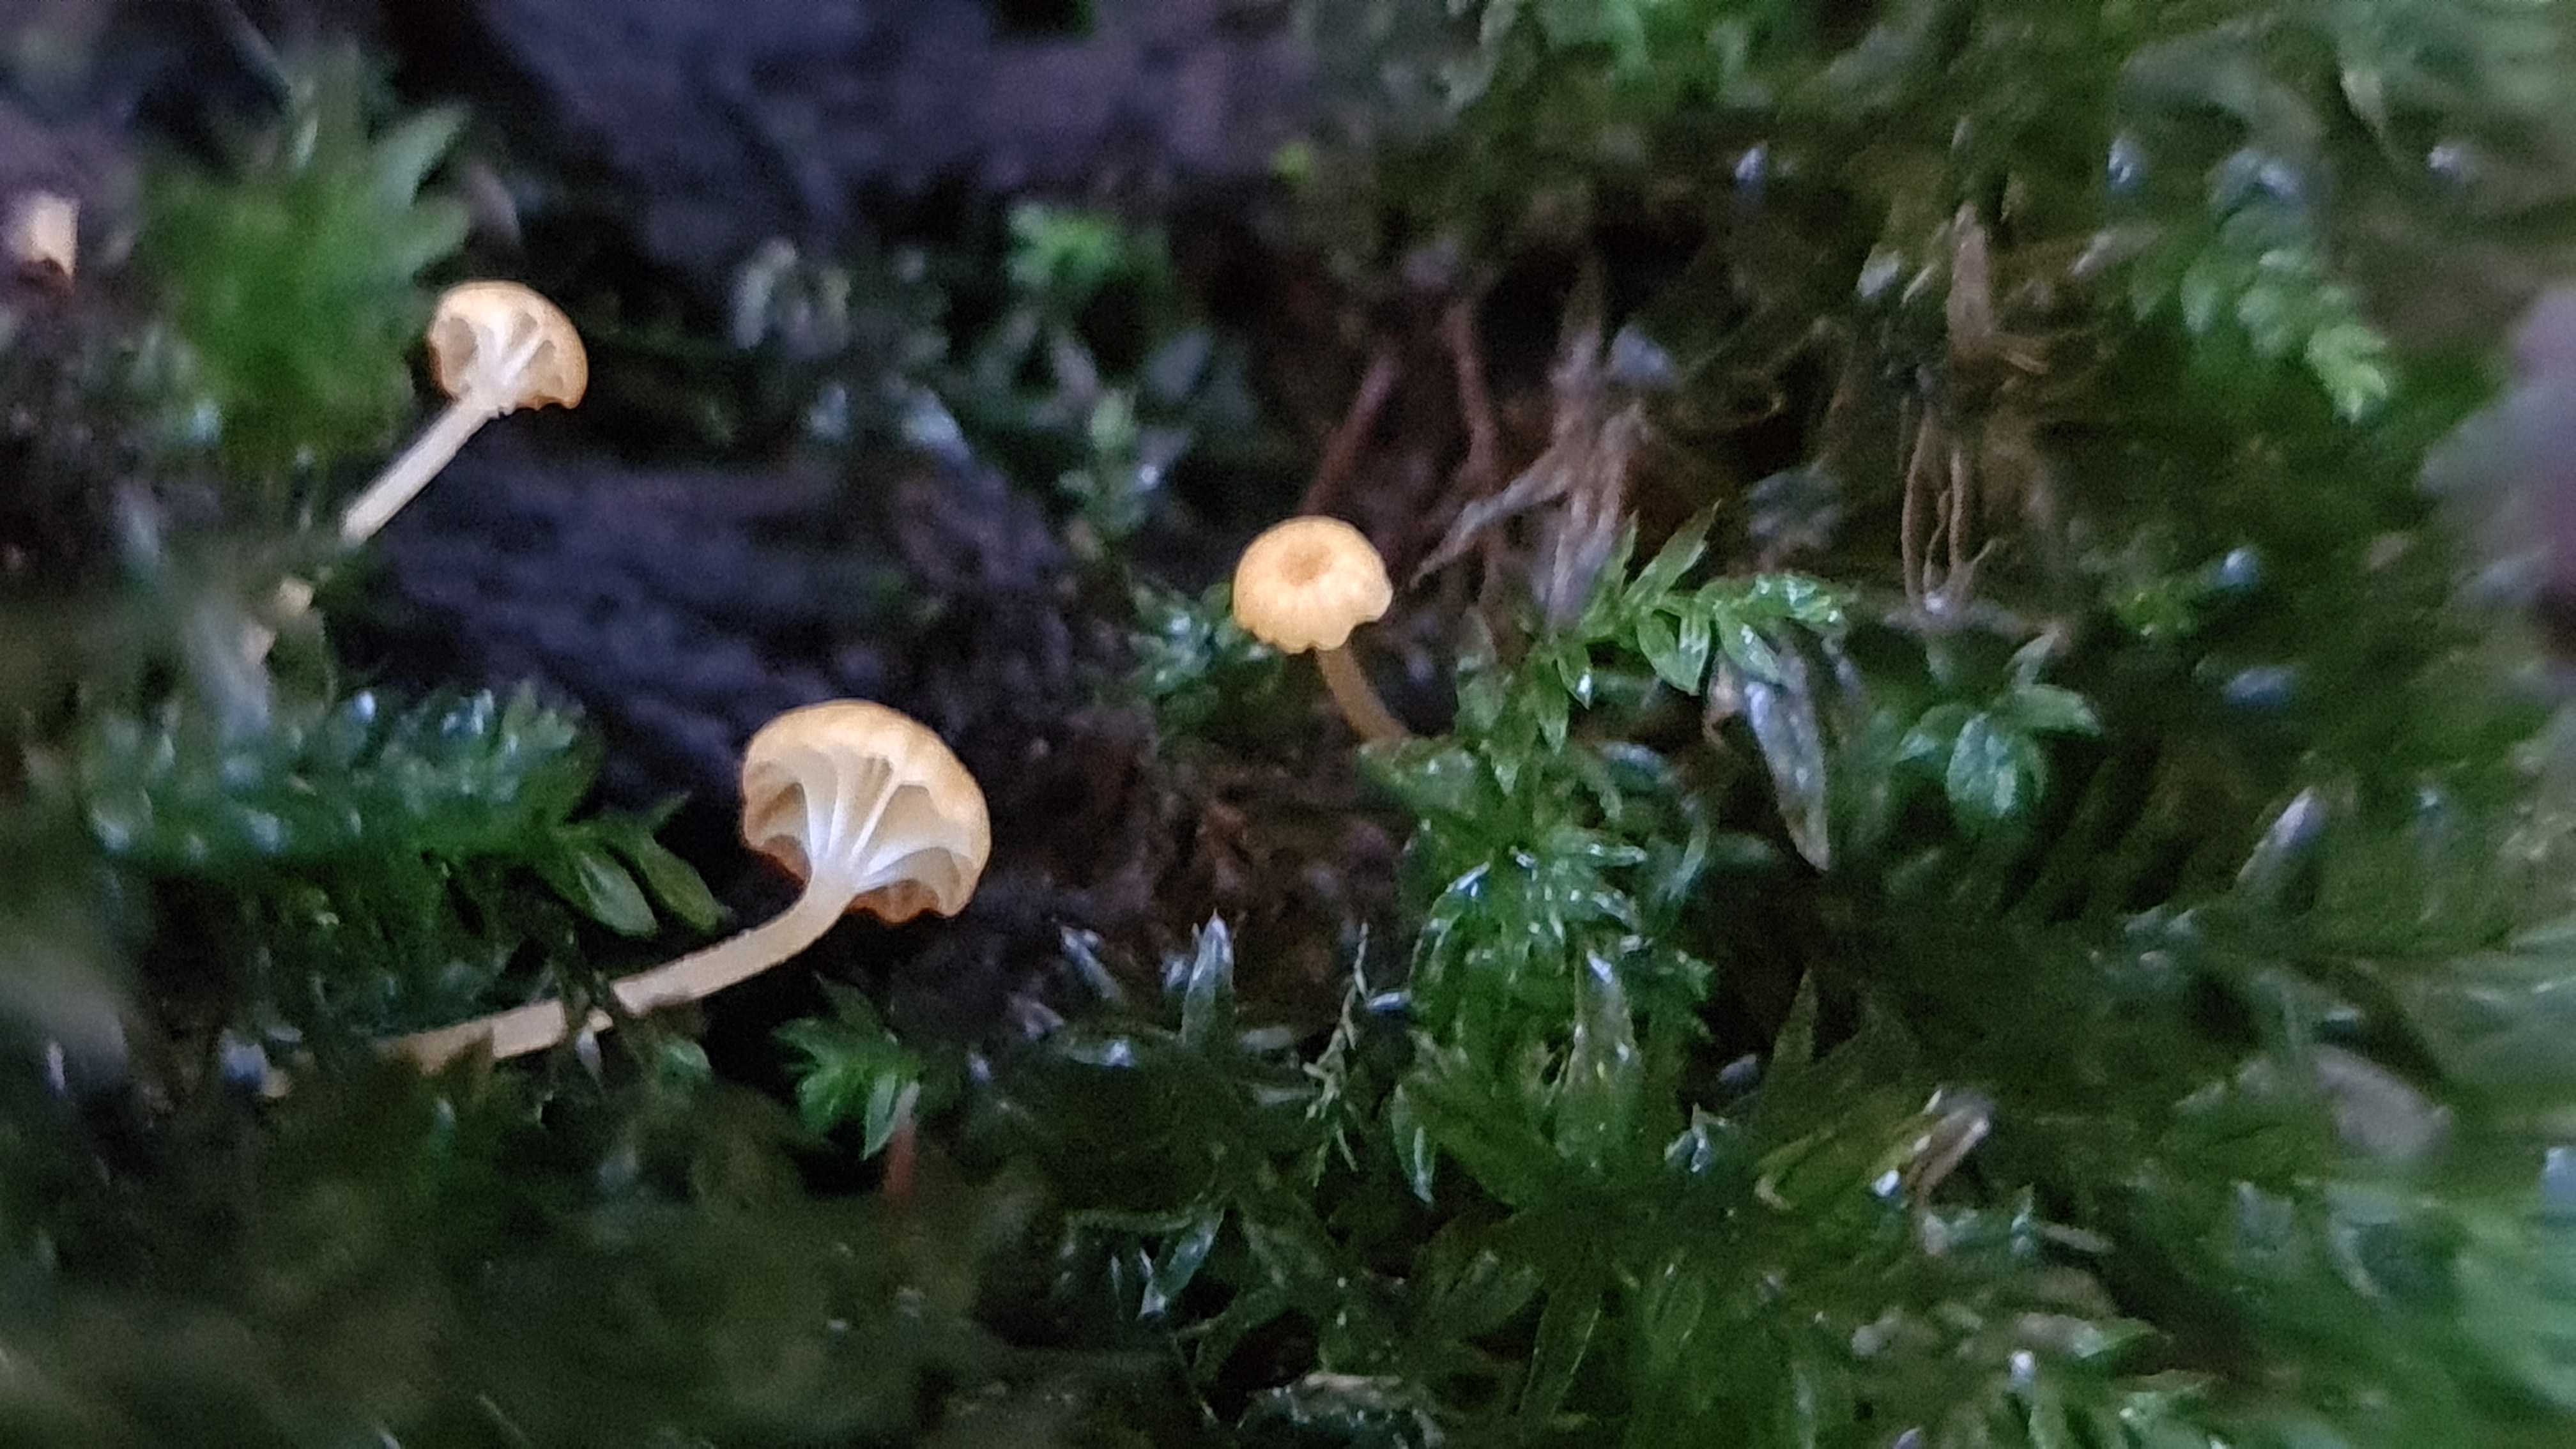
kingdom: Fungi
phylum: Basidiomycota
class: Agaricomycetes
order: Hymenochaetales
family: Rickenellaceae
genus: Rickenella
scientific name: Rickenella fibula
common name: orange mosnavlehat
